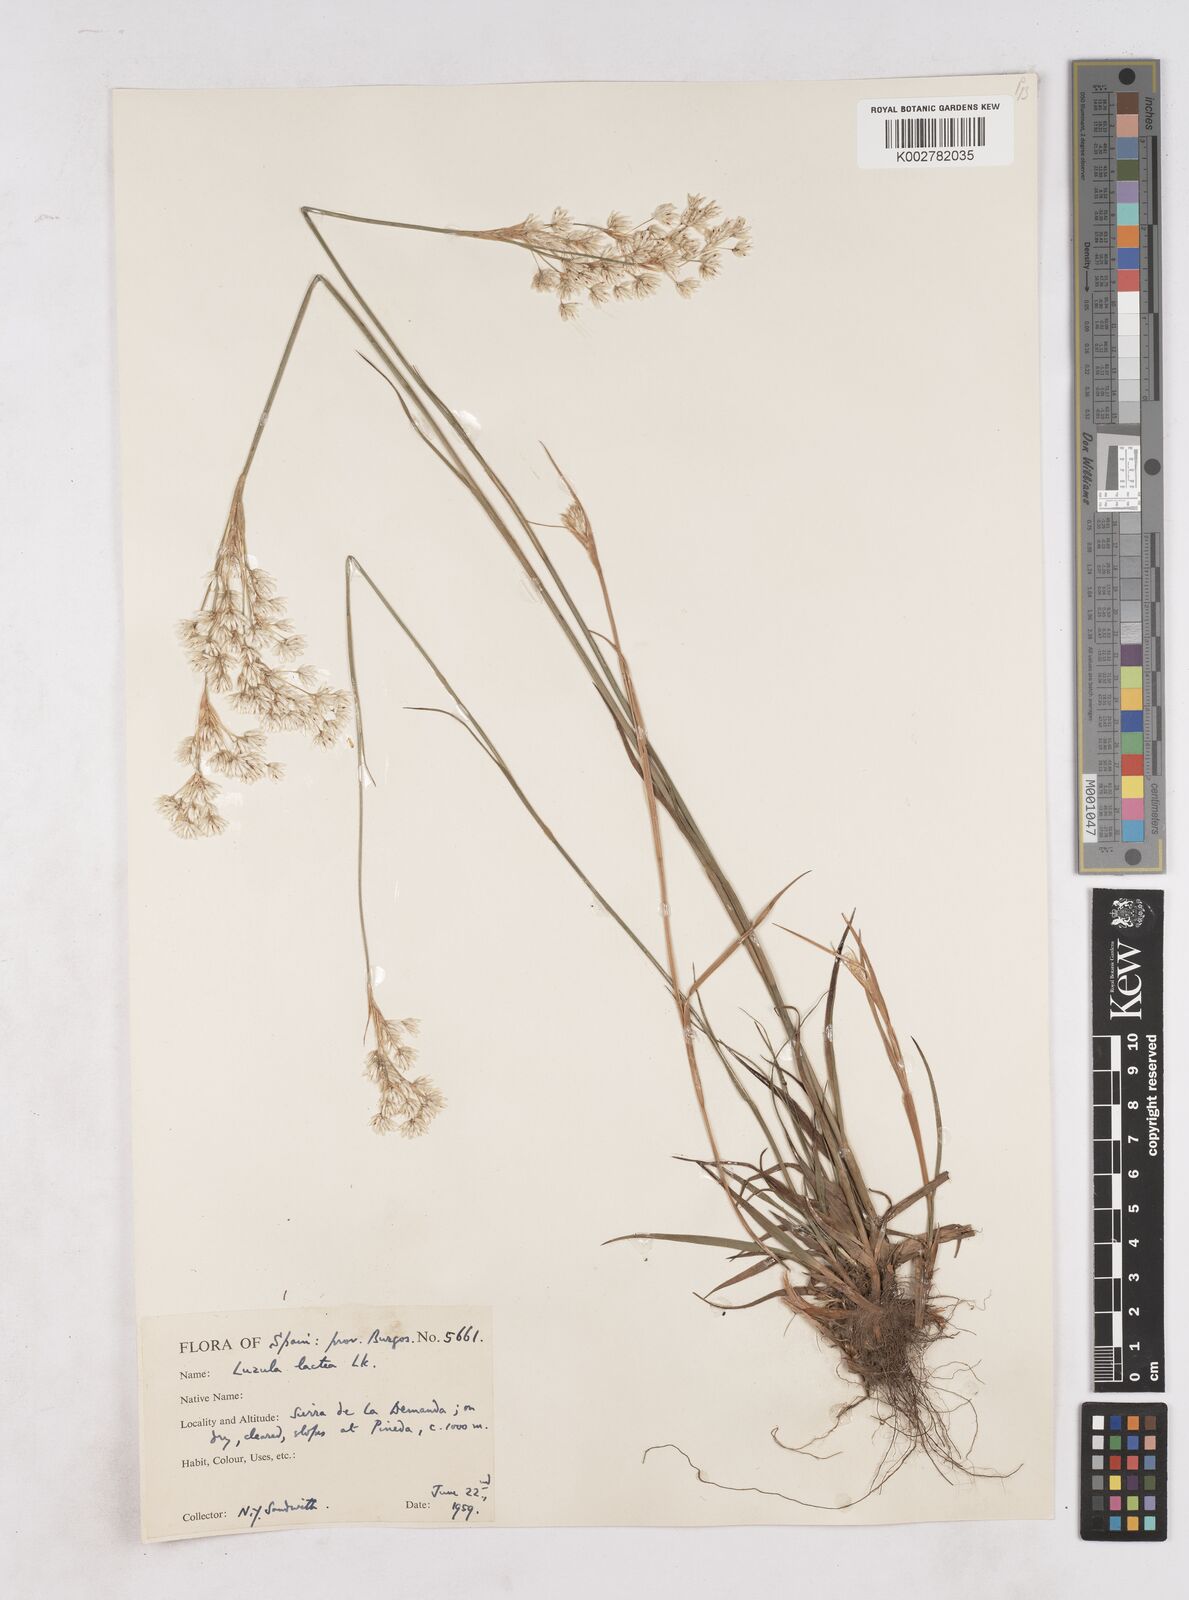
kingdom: Plantae
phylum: Tracheophyta
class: Liliopsida
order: Poales
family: Juncaceae
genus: Luzula
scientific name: Luzula lactea
